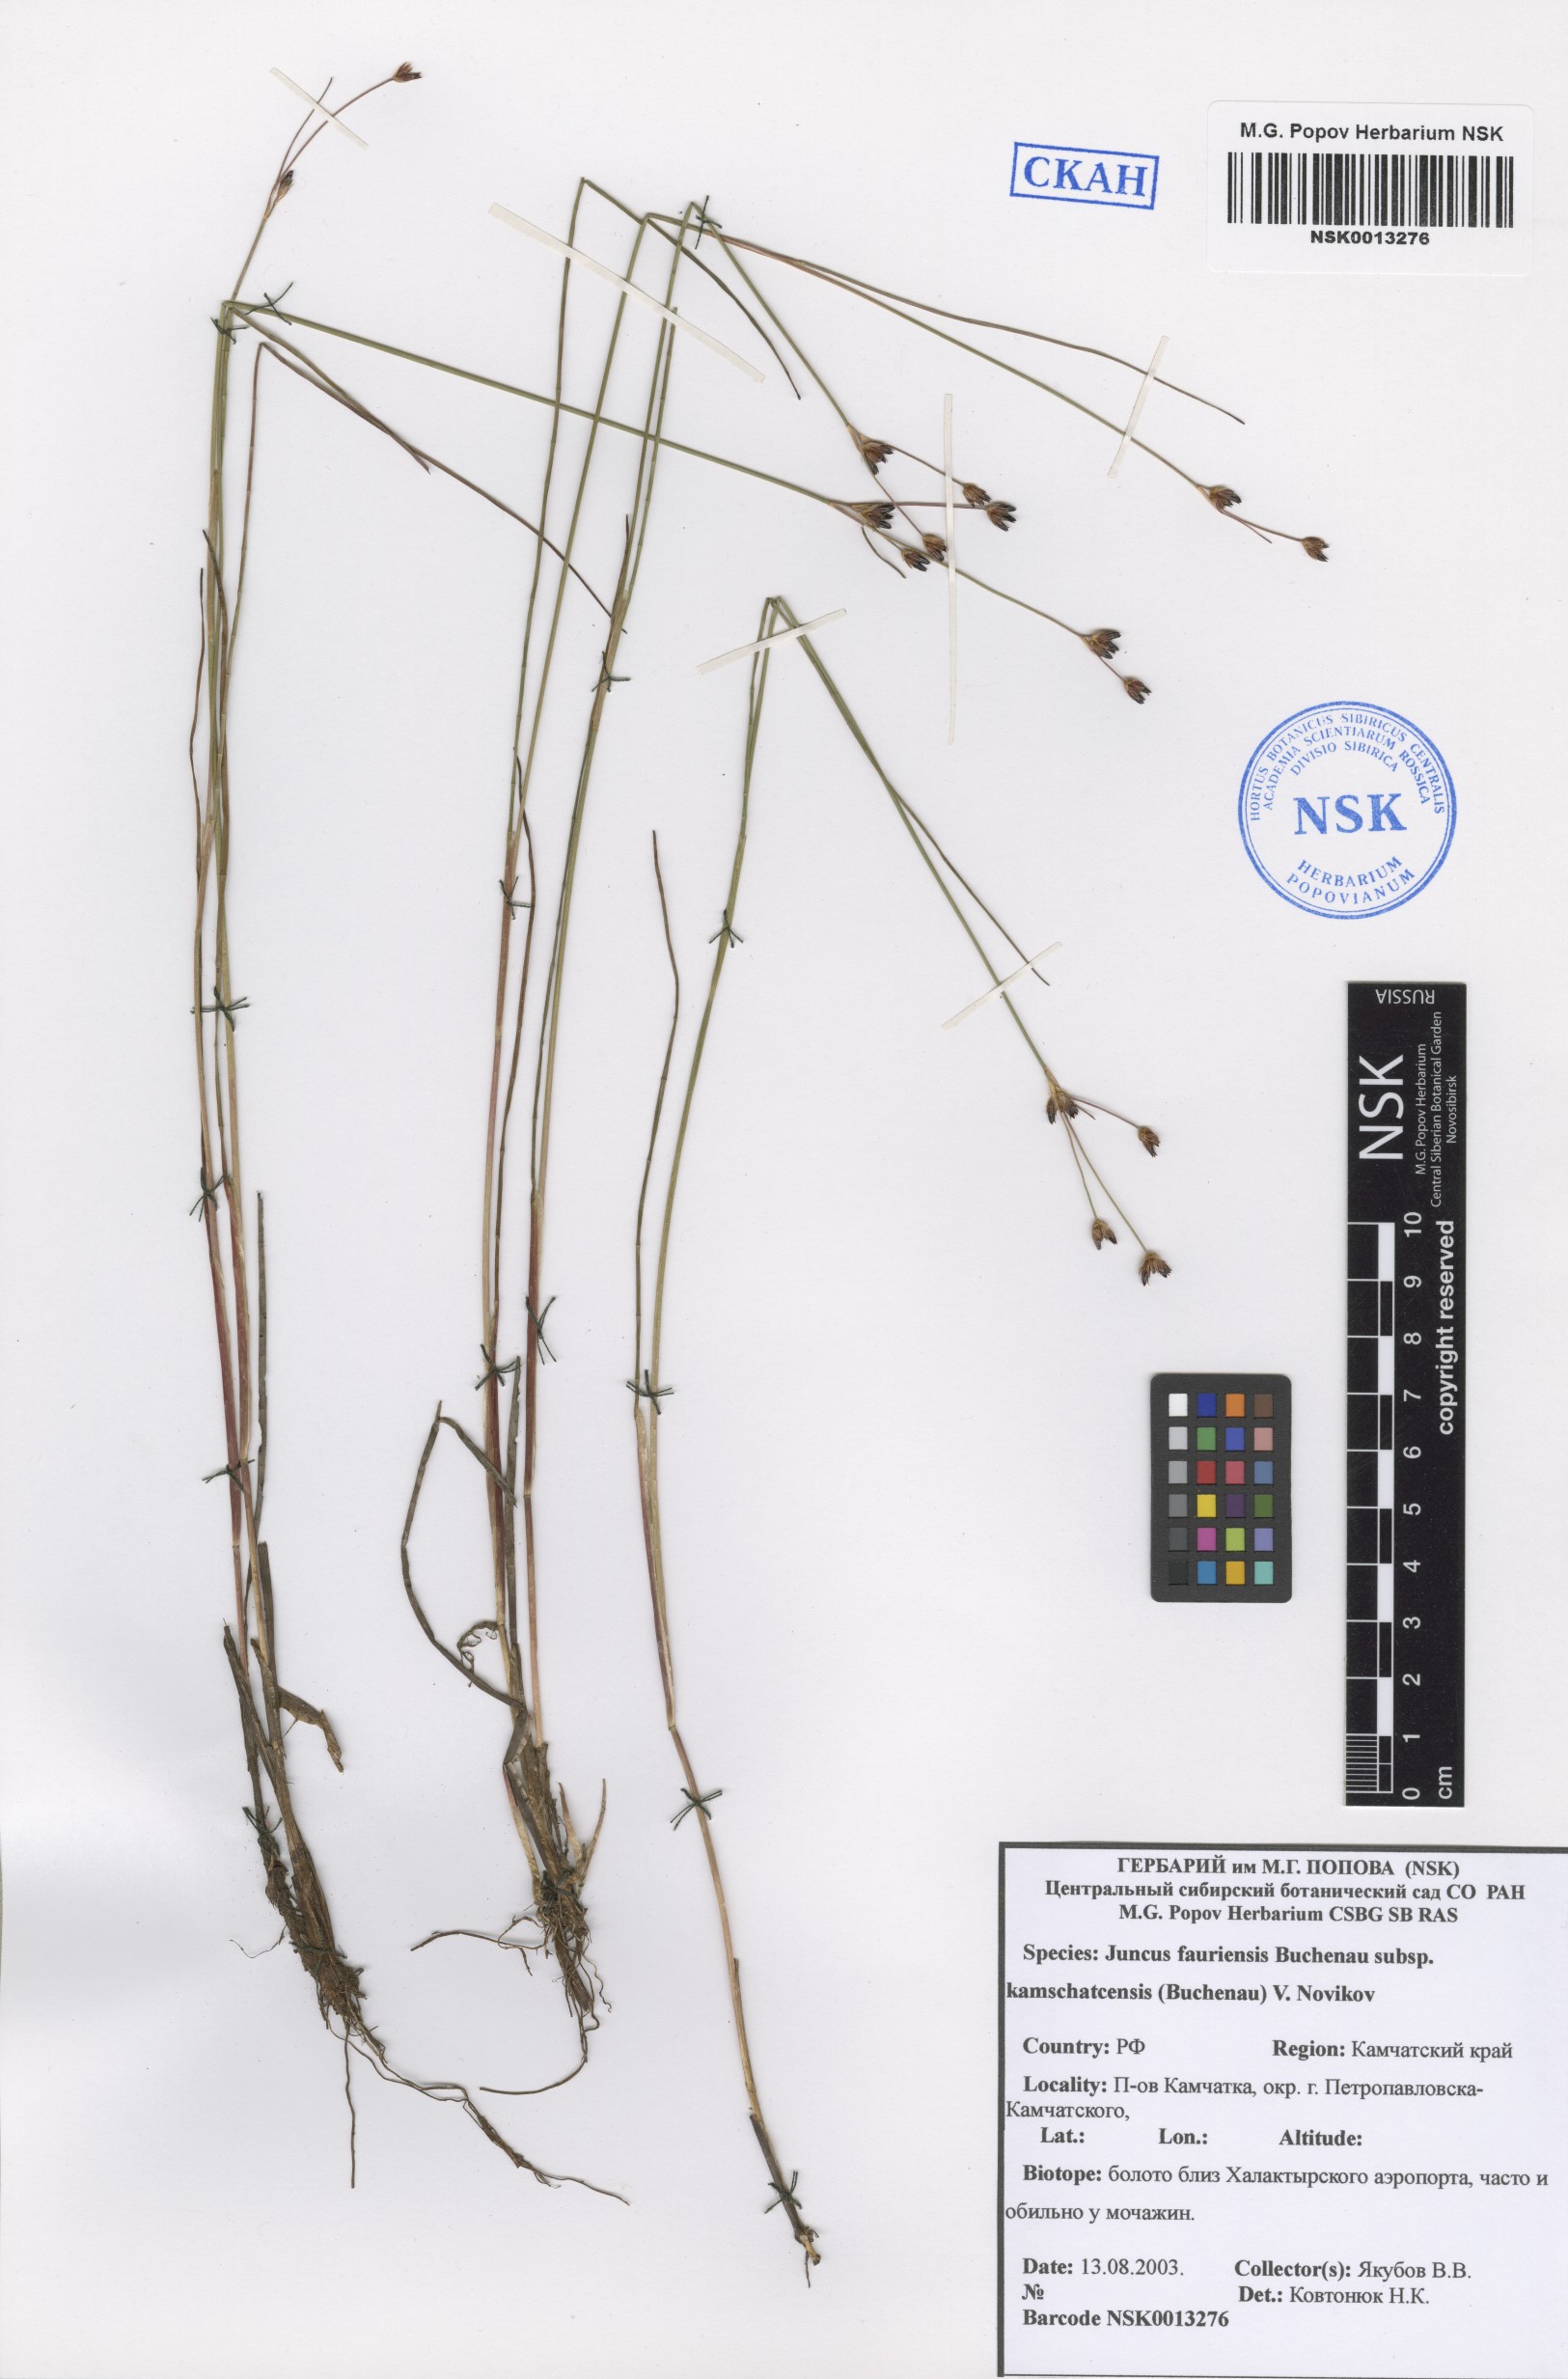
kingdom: Plantae
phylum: Tracheophyta
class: Liliopsida
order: Poales
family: Juncaceae
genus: Juncus
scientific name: Juncus fauriensis
